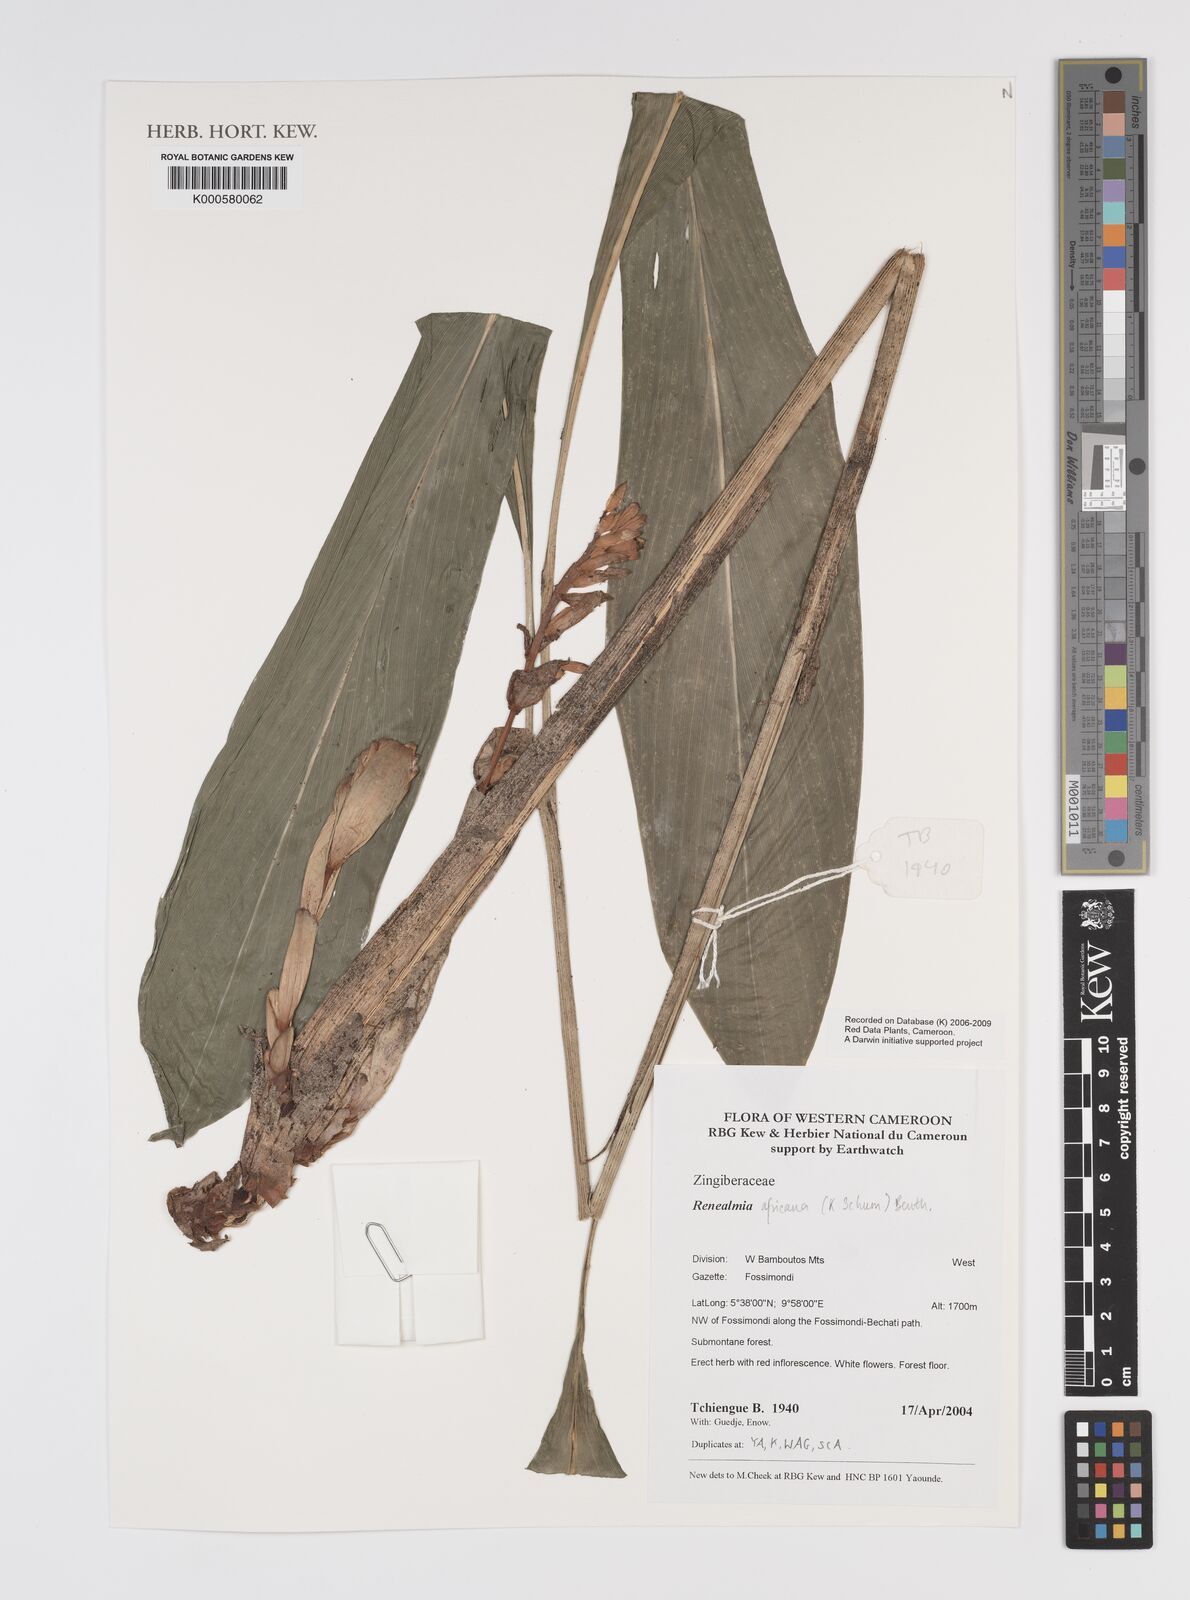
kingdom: Plantae
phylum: Tracheophyta
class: Liliopsida
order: Zingiberales
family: Zingiberaceae
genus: Renealmia
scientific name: Renealmia africana
